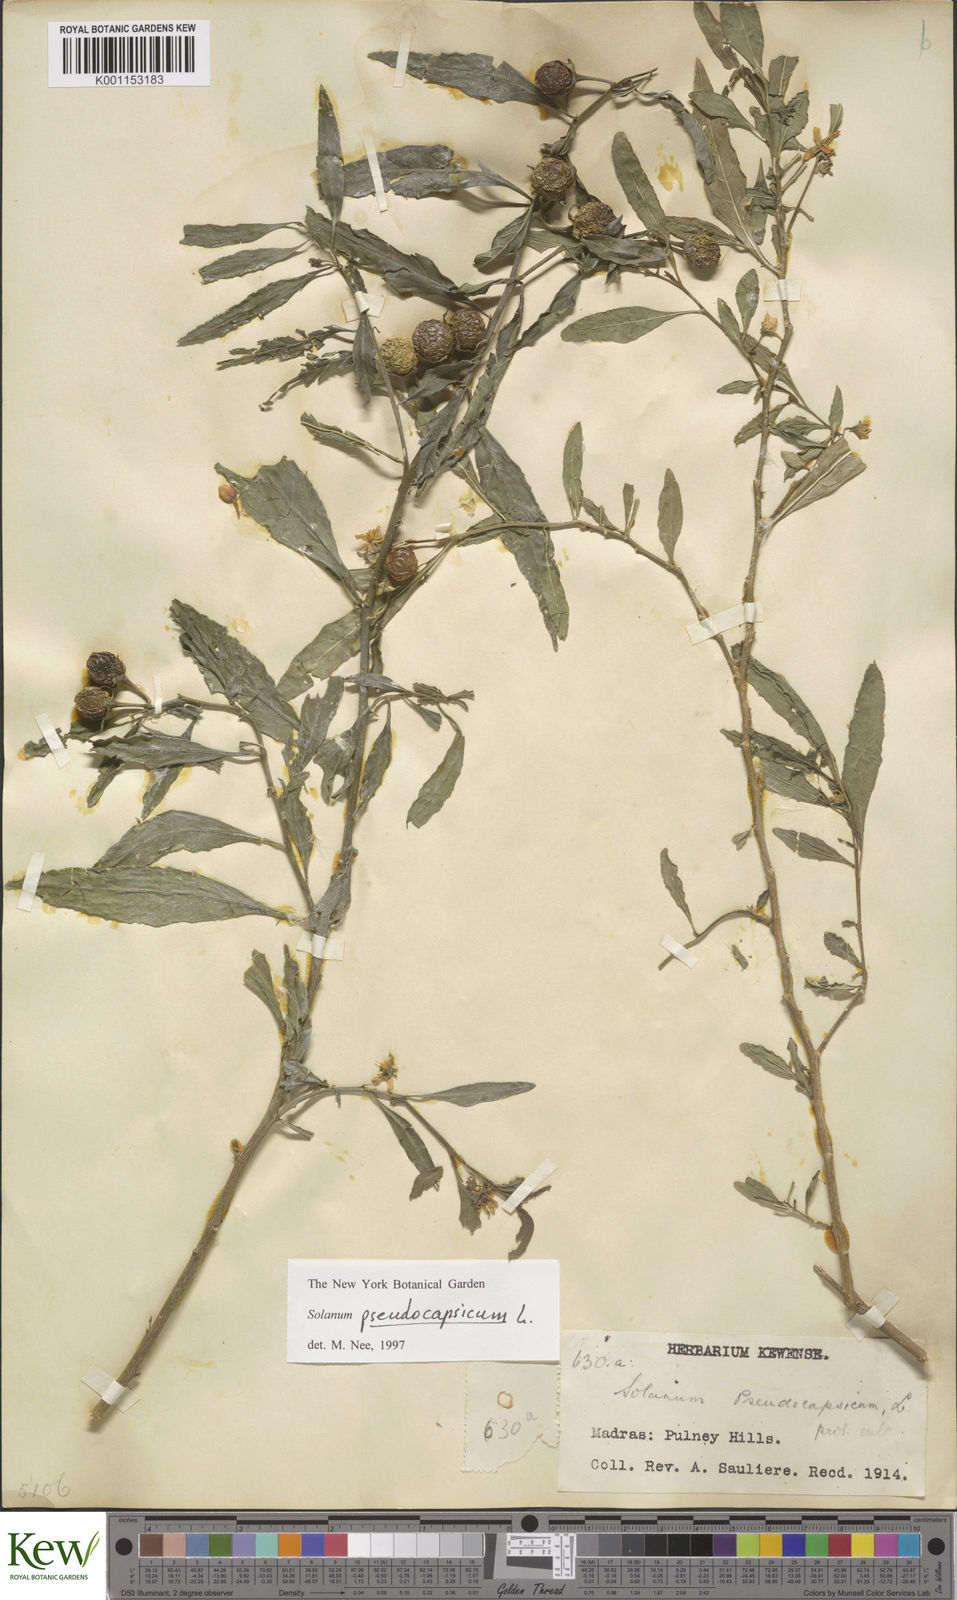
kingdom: Plantae
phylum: Tracheophyta
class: Magnoliopsida
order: Solanales
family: Solanaceae
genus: Solanum
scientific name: Solanum pseudocapsicum
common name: Jerusalem cherry
